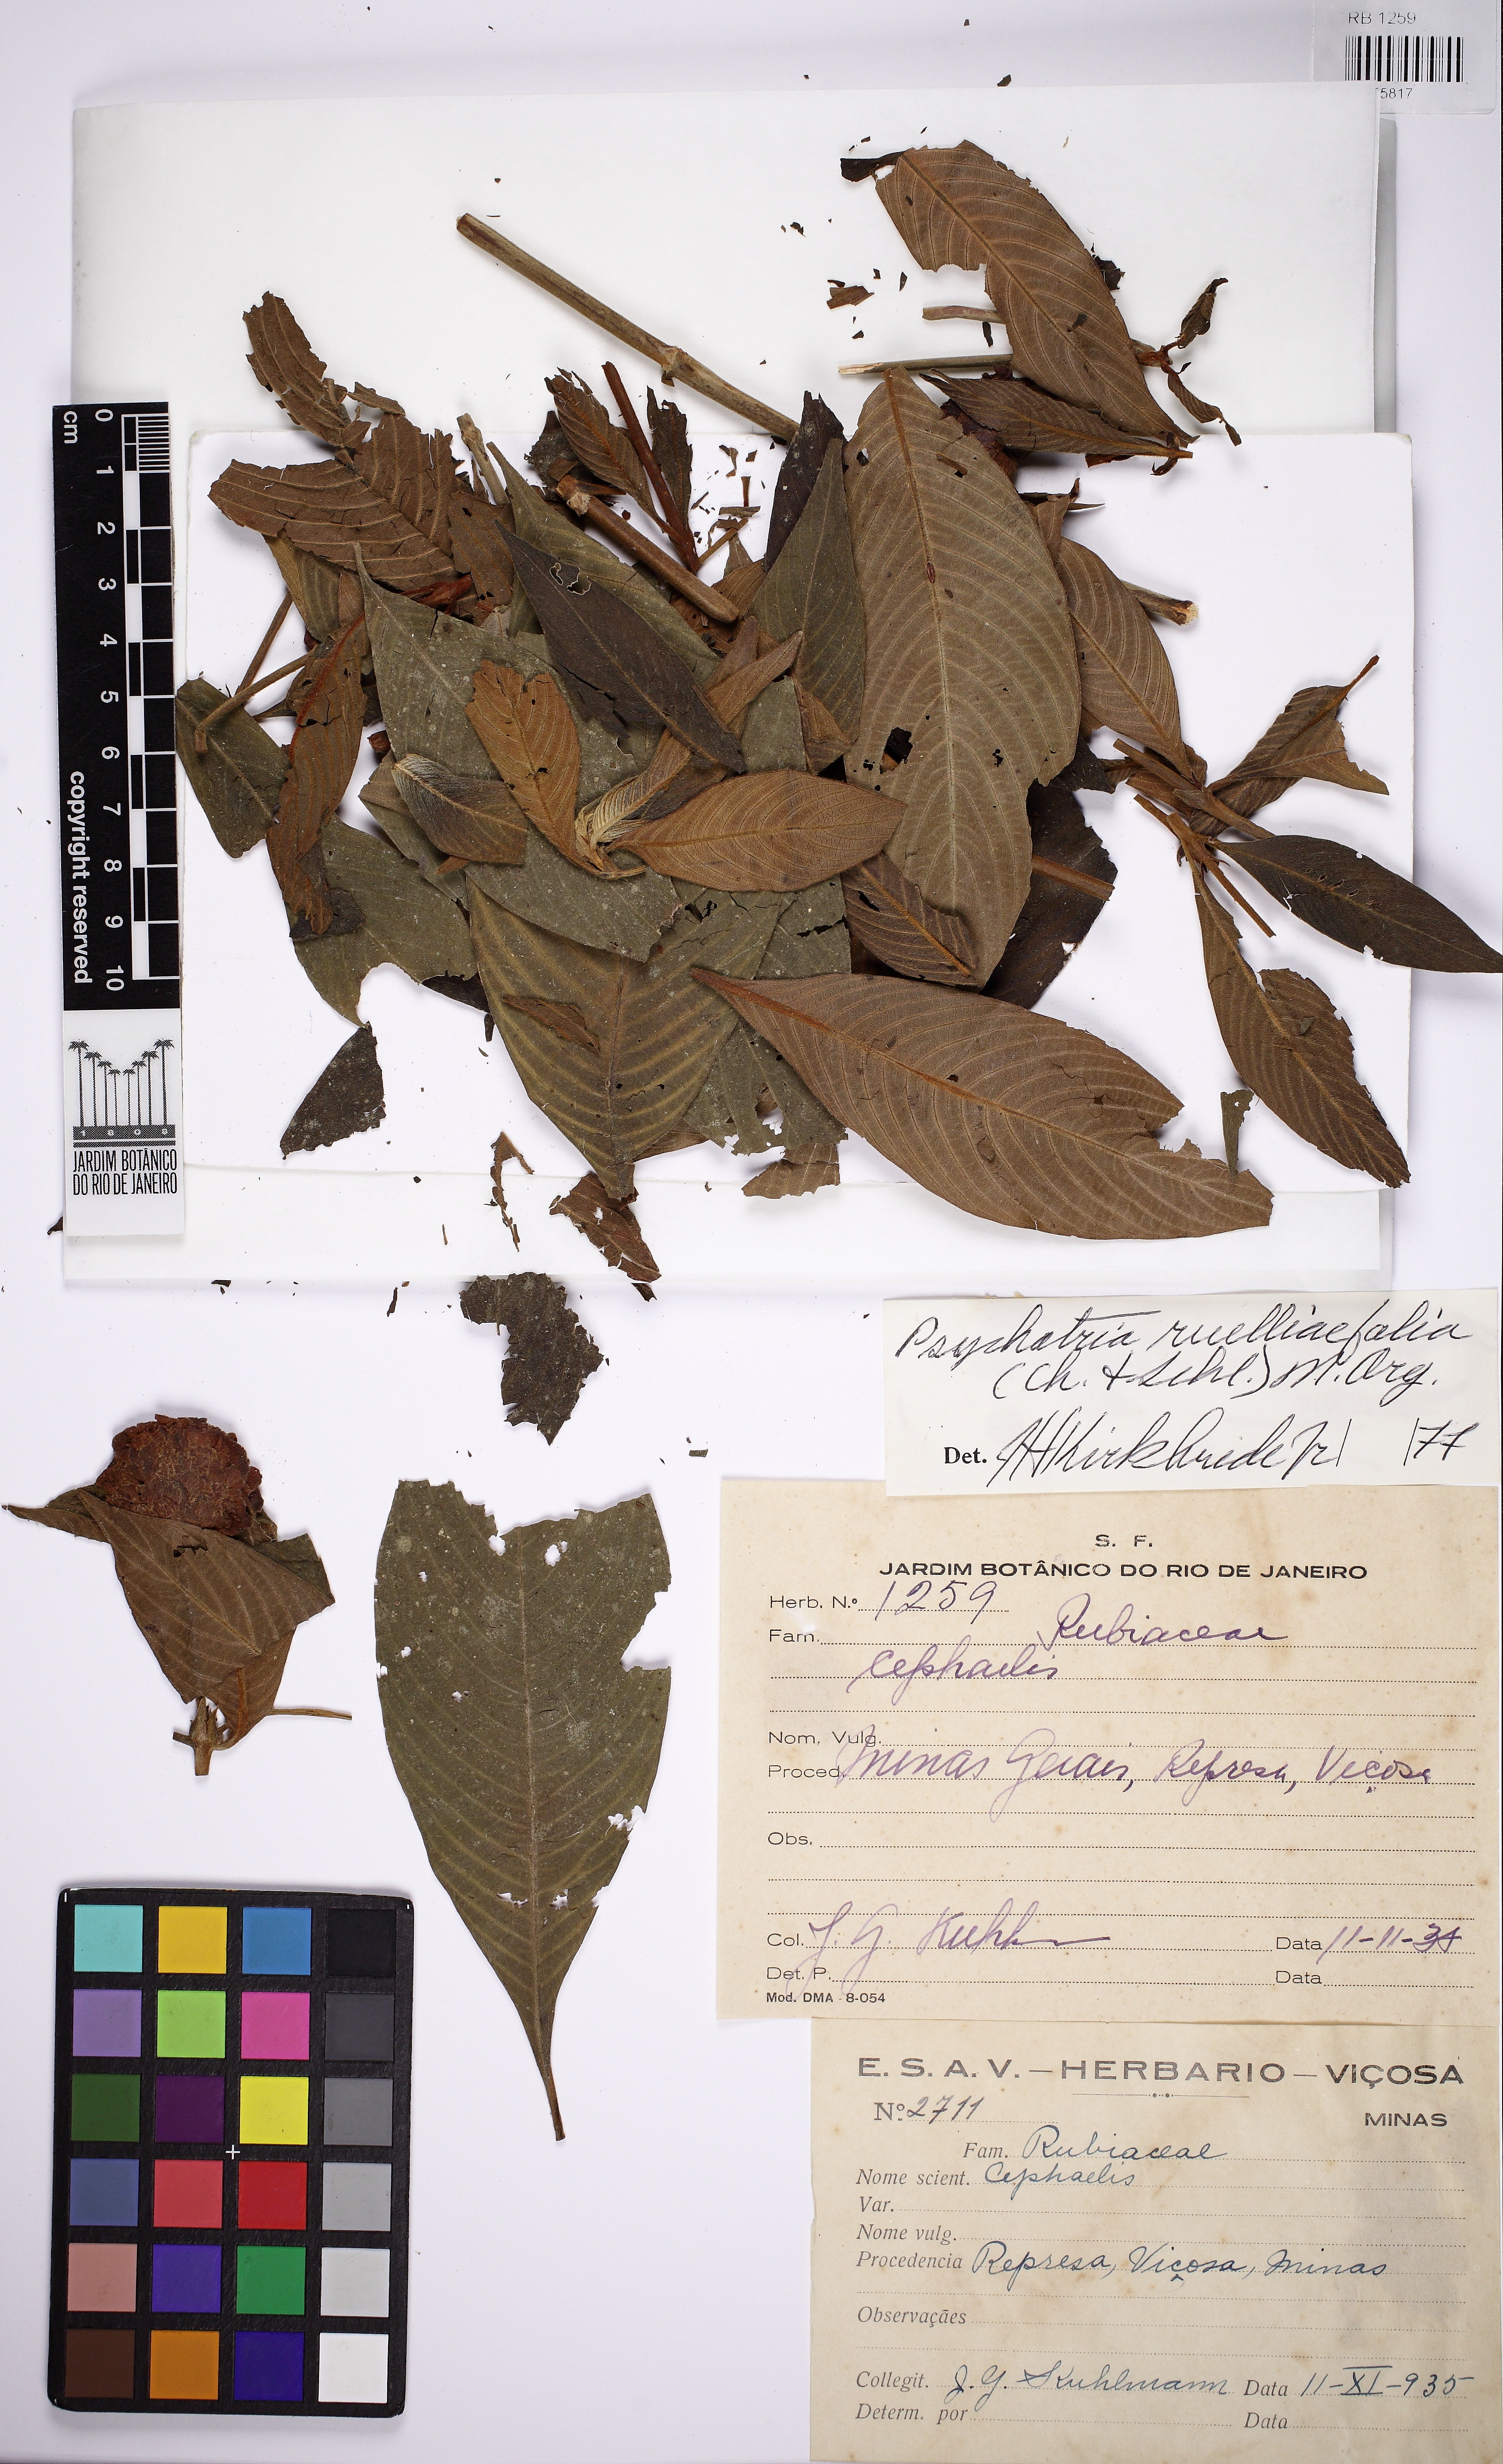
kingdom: Plantae
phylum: Tracheophyta
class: Magnoliopsida
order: Gentianales
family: Rubiaceae
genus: Palicourea
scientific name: Palicourea ruelliifolia
